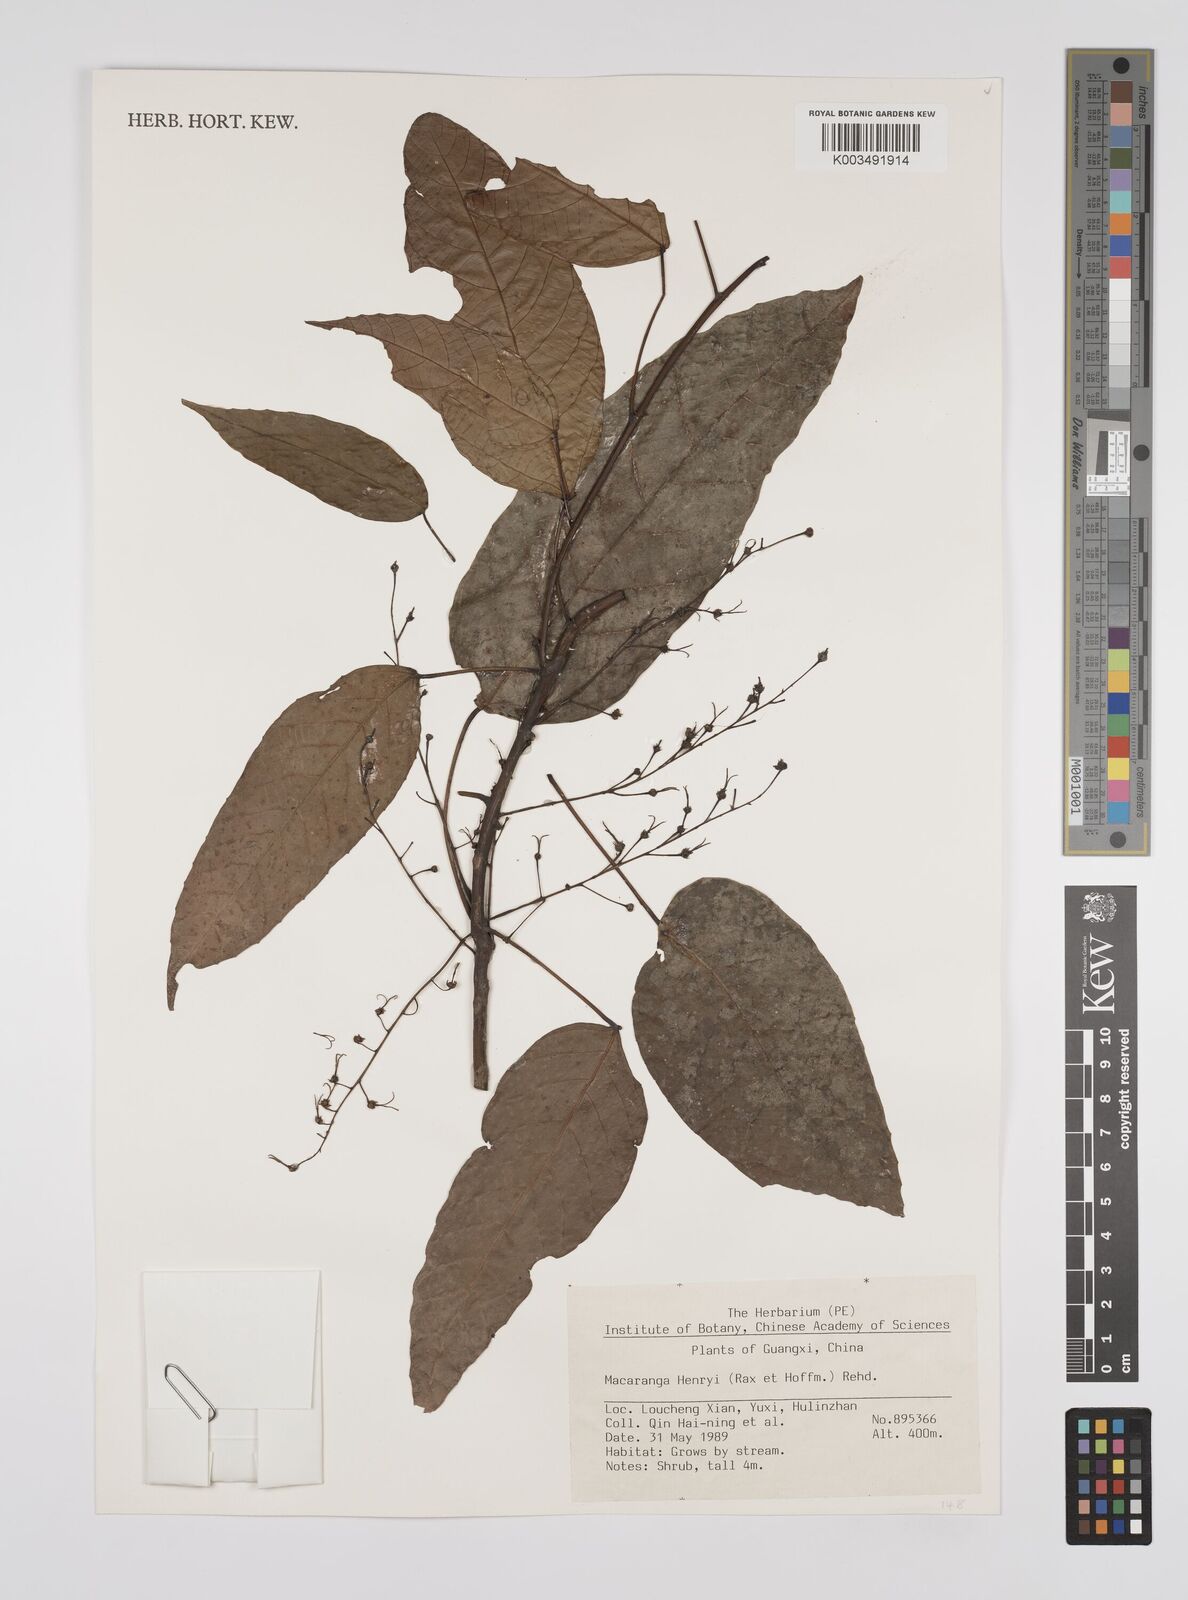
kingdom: Plantae
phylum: Tracheophyta
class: Magnoliopsida
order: Malpighiales
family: Euphorbiaceae
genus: Macaranga
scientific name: Macaranga henryi
